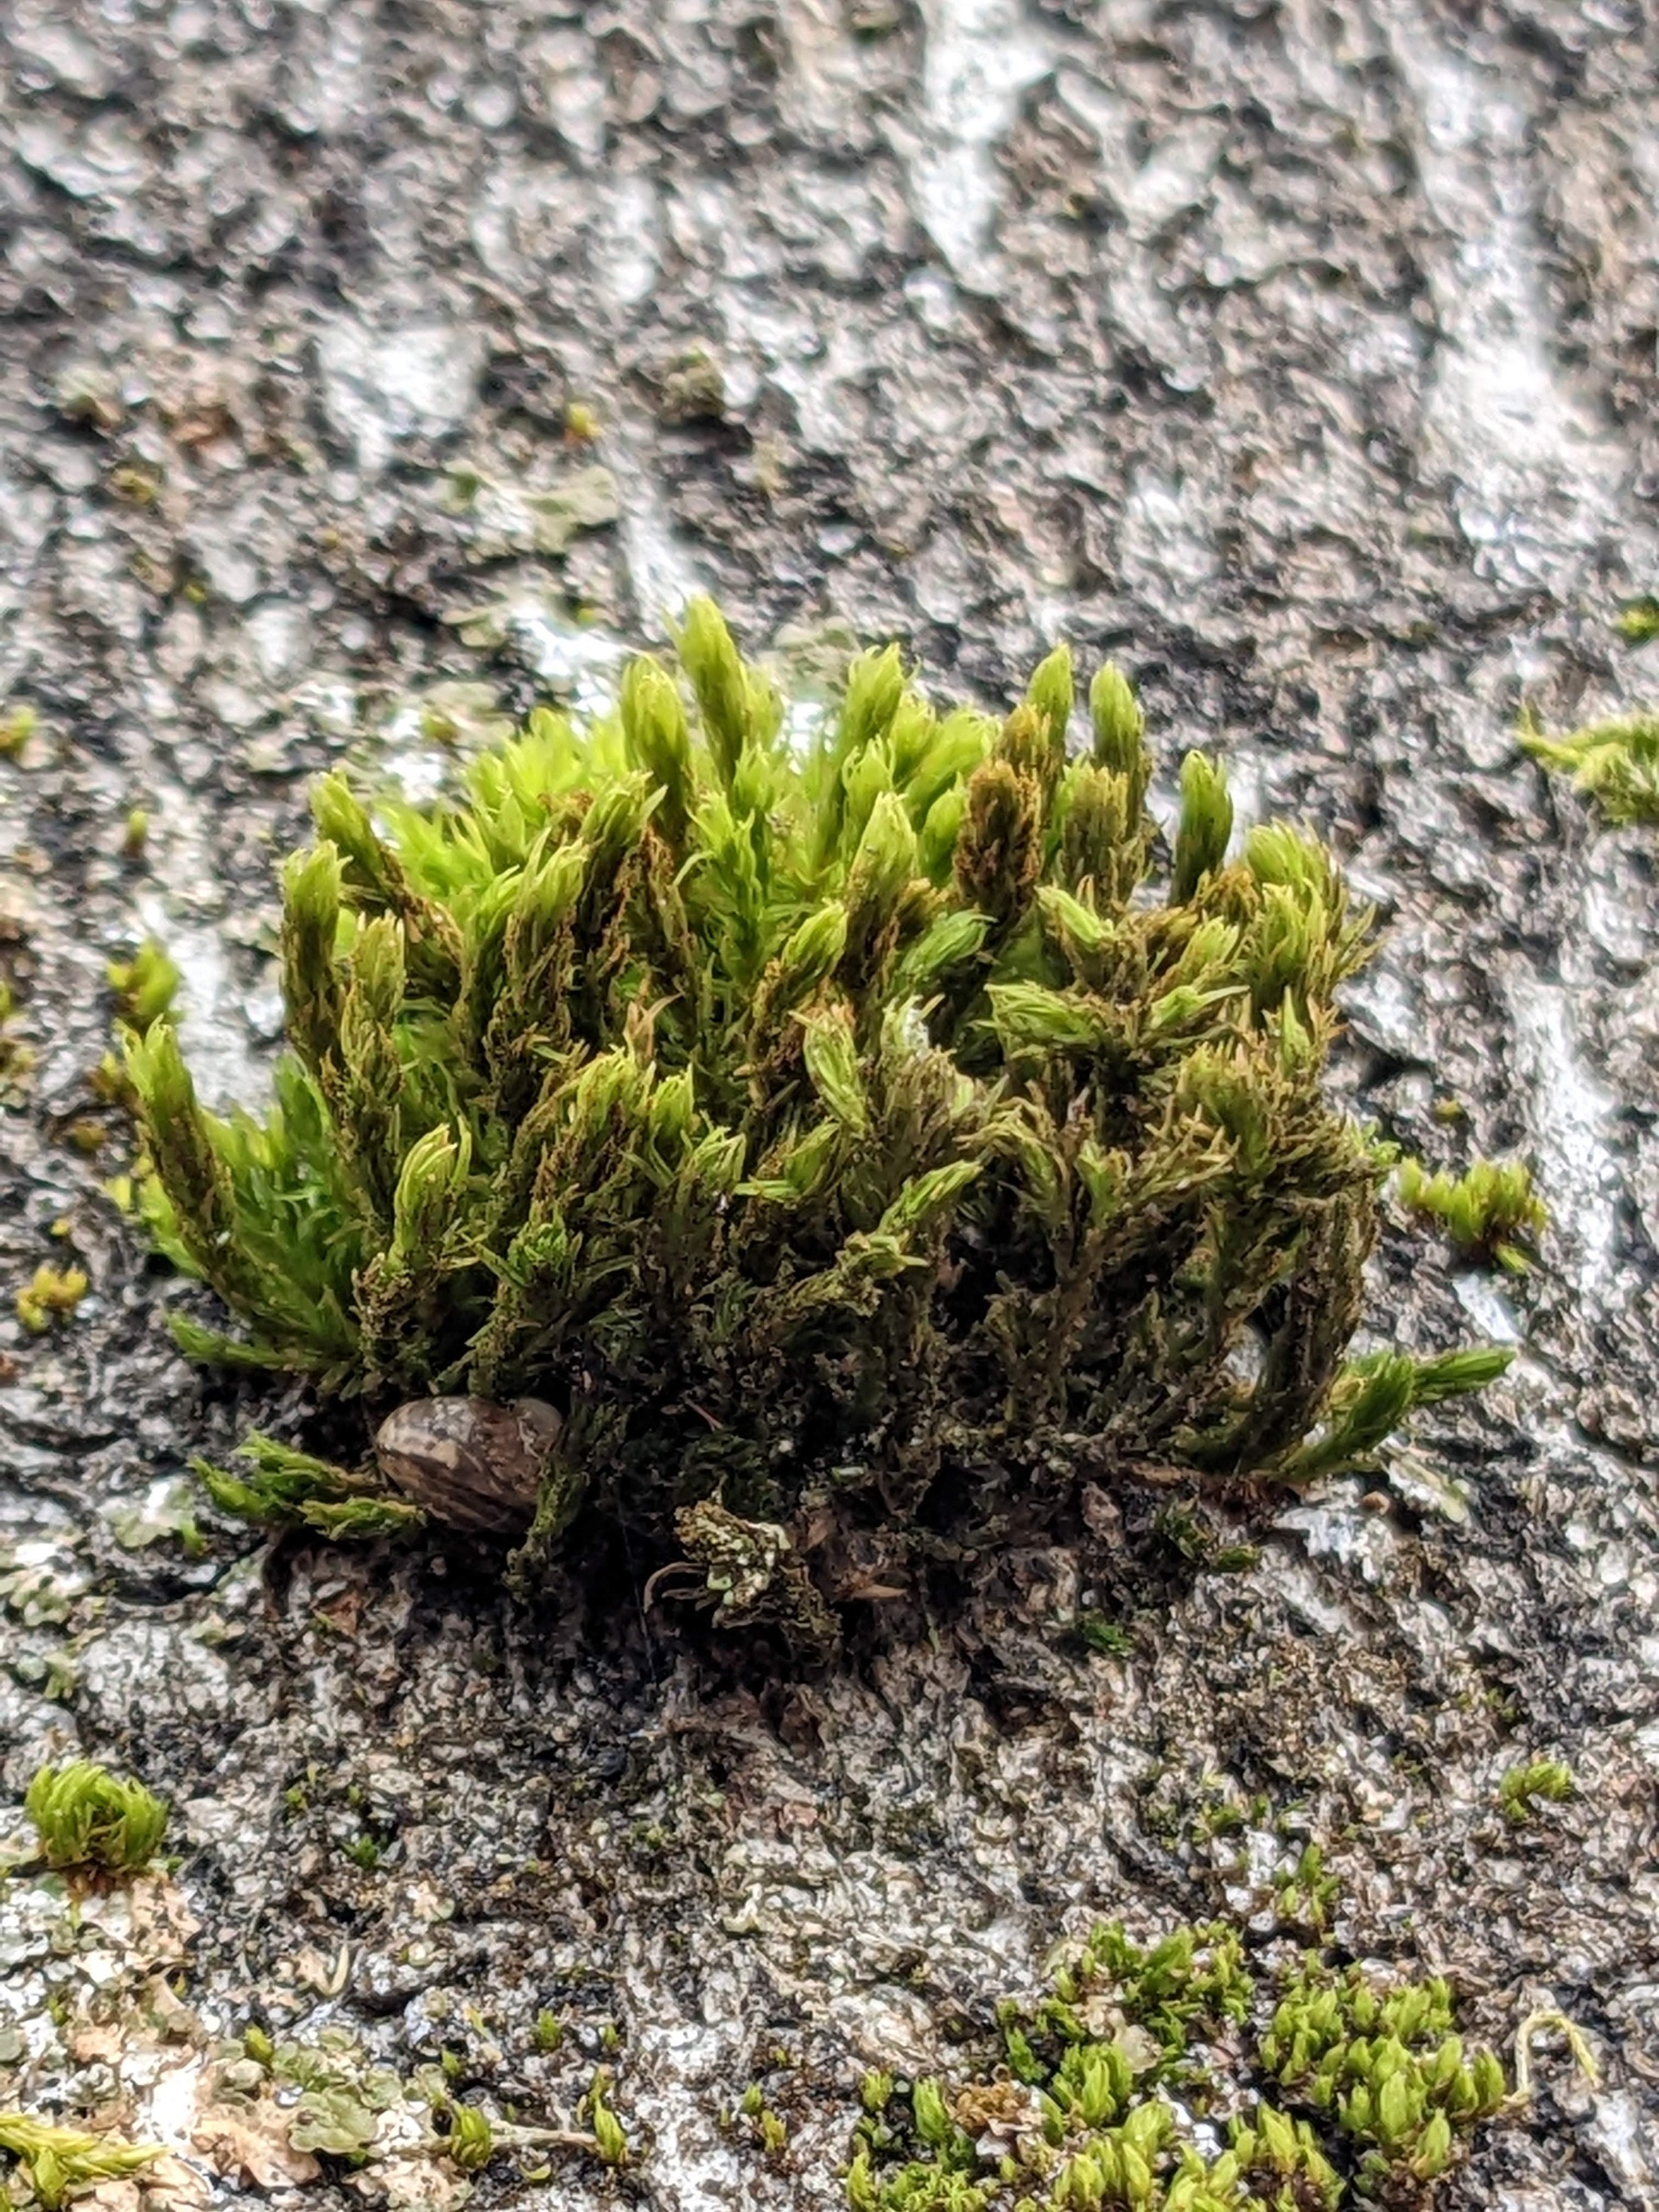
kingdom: Plantae
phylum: Bryophyta
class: Bryopsida
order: Orthotrichales
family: Orthotrichaceae
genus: Pulvigera
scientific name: Pulvigera lyellii
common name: Stor furehætte
